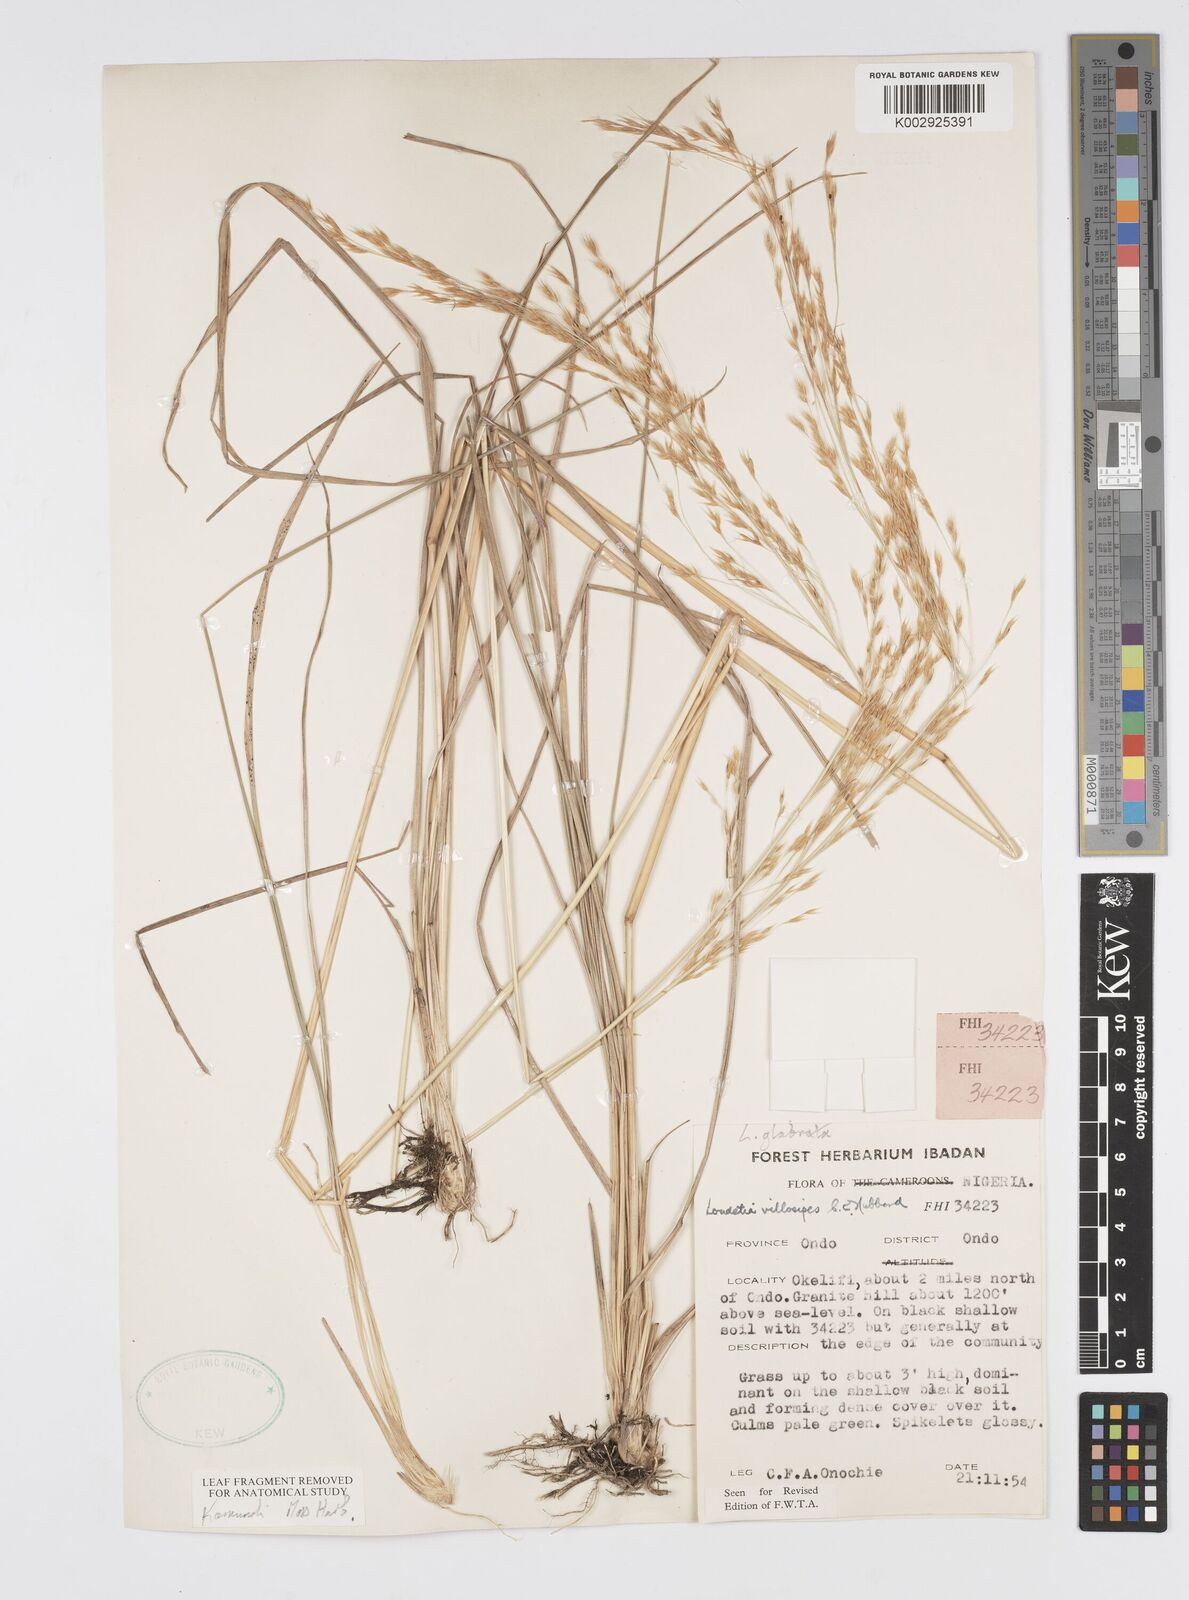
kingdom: Plantae
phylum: Tracheophyta
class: Liliopsida
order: Poales
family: Poaceae
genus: Loudetiopsis
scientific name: Loudetiopsis glabrata
